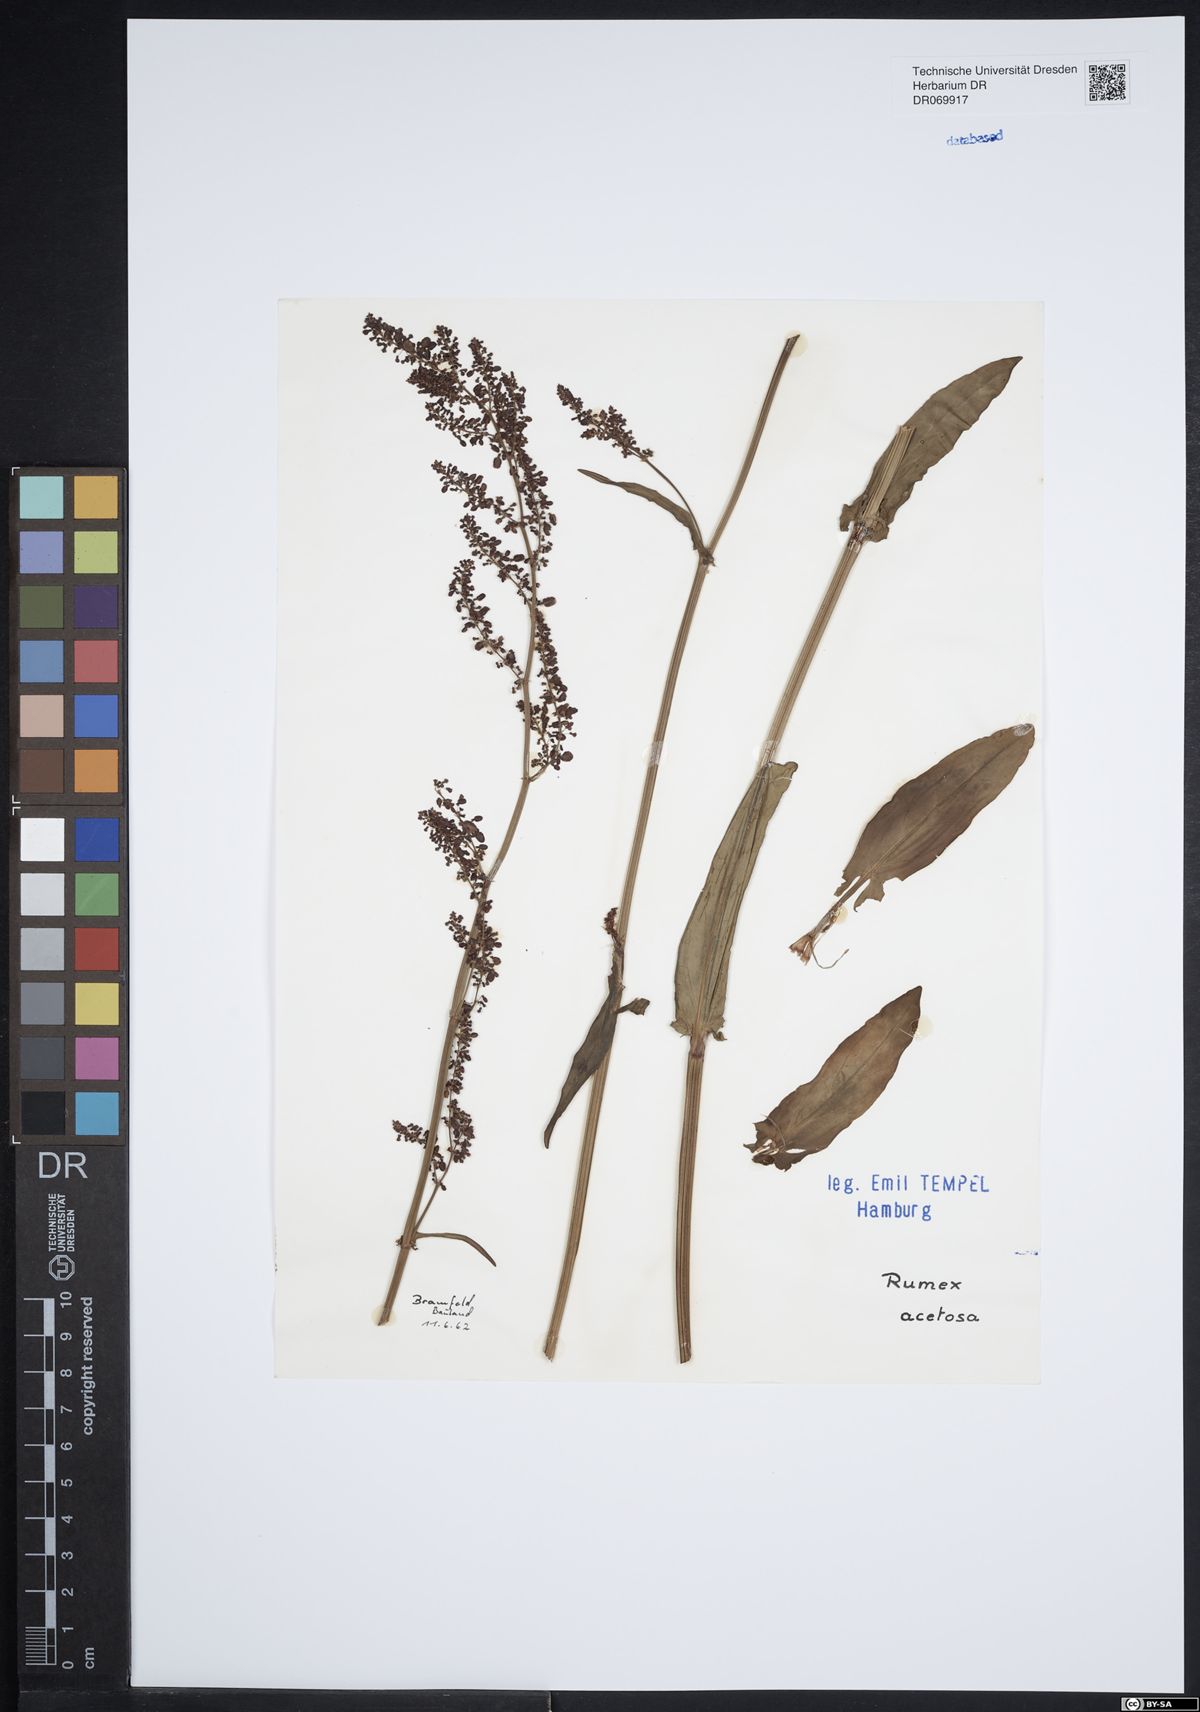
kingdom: Plantae
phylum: Tracheophyta
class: Magnoliopsida
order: Caryophyllales
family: Polygonaceae
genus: Rumex
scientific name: Rumex acetosa
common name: Garden sorrel
